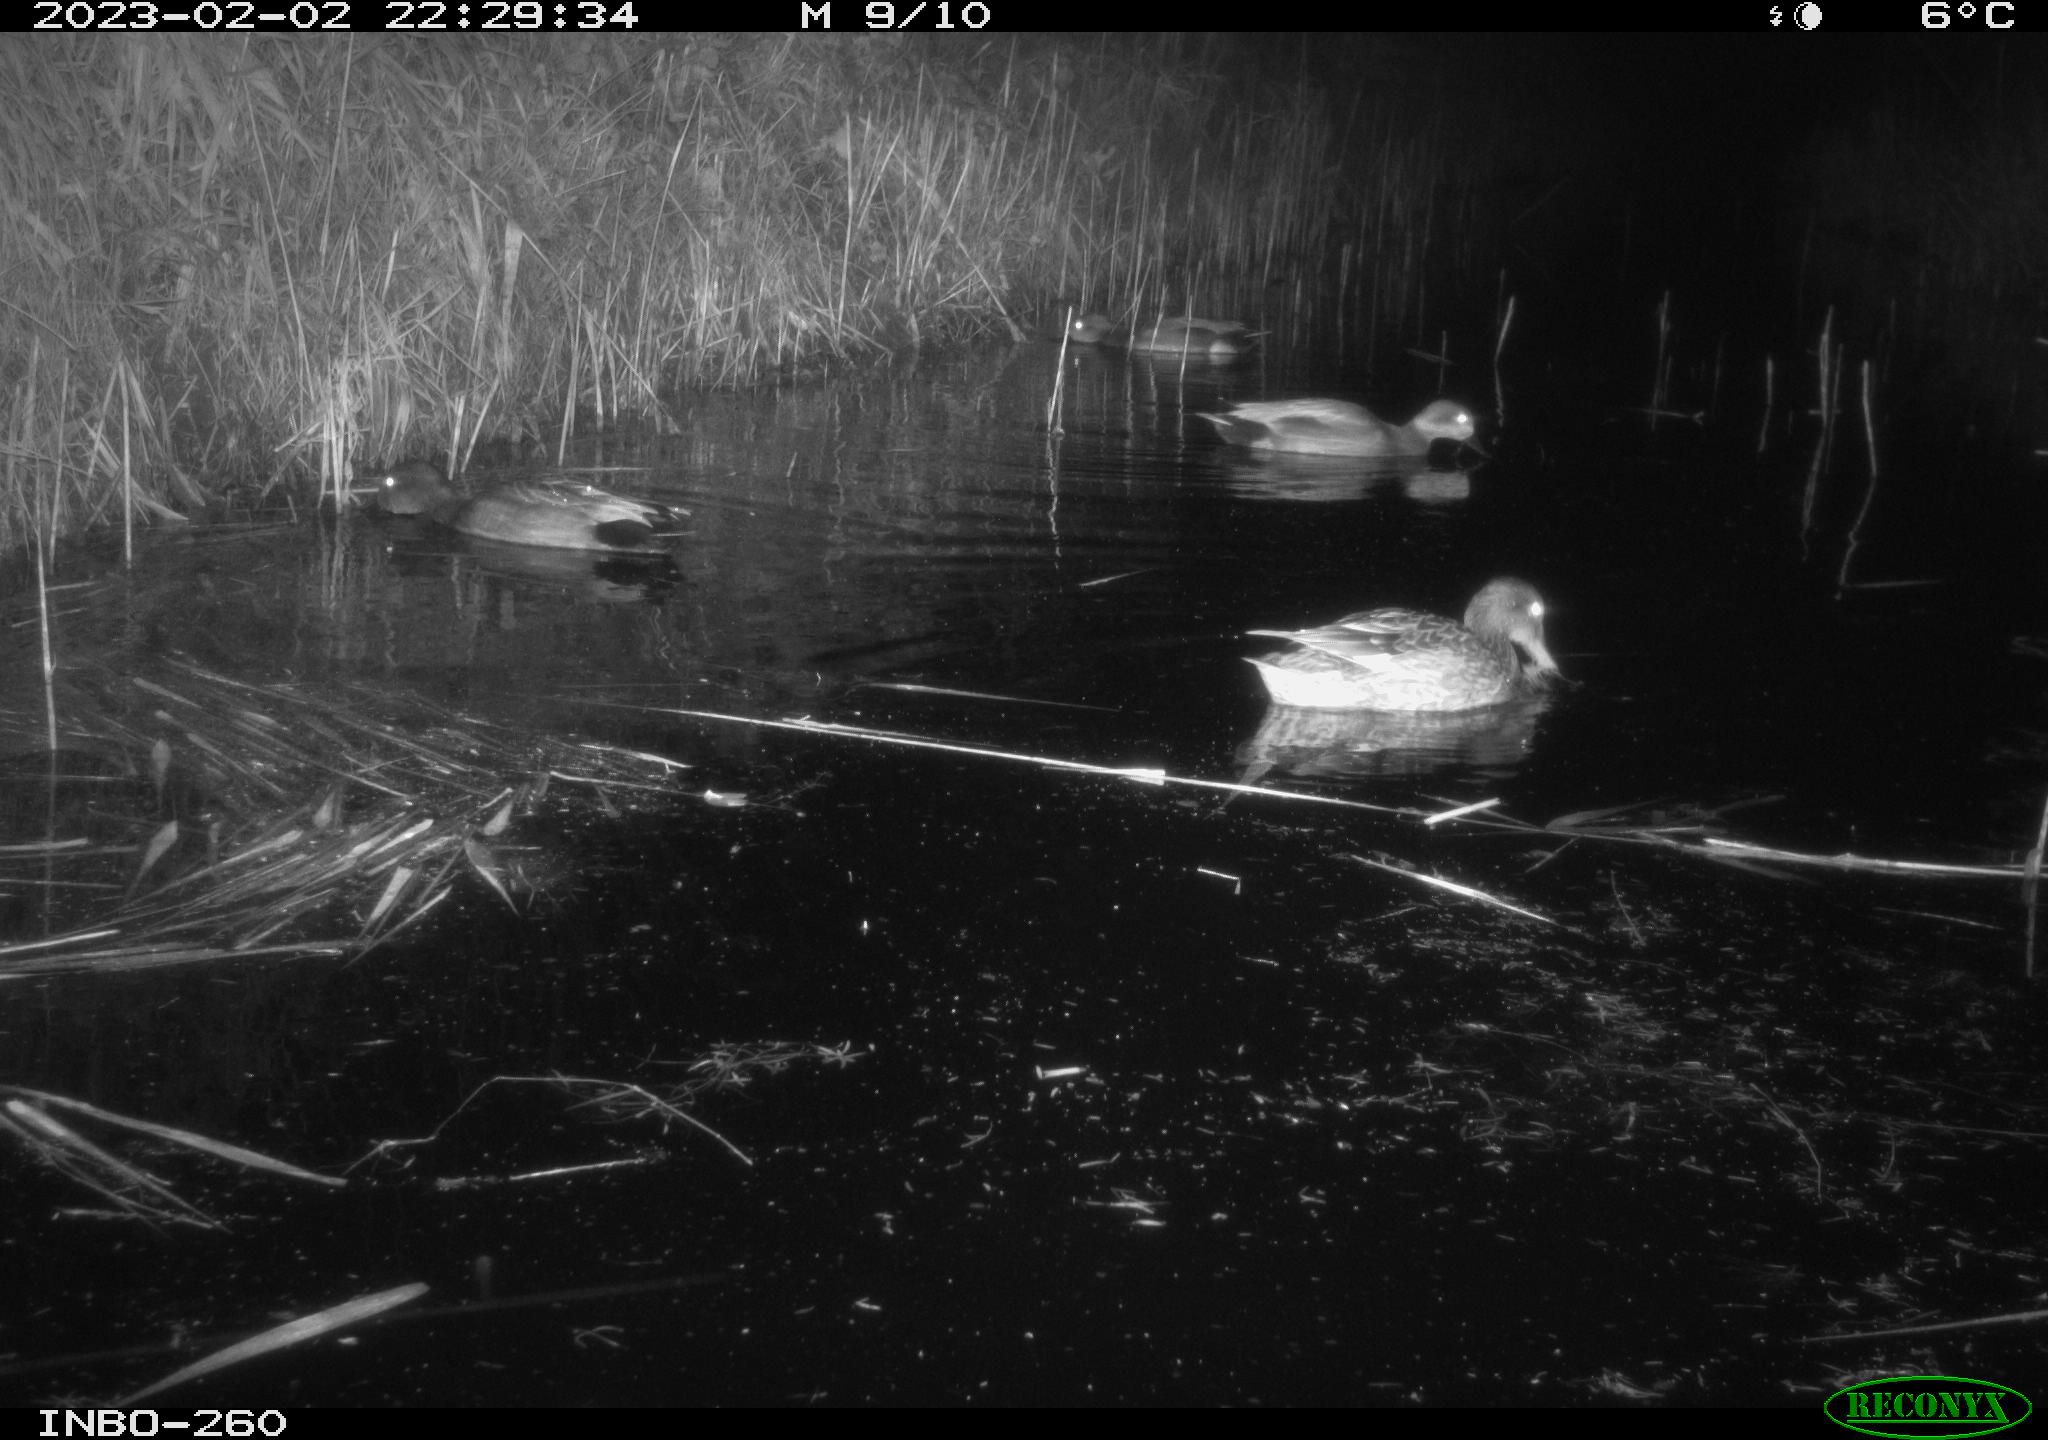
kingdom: Animalia
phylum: Chordata
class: Aves
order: Anseriformes
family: Anatidae
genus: Anas
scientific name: Anas
